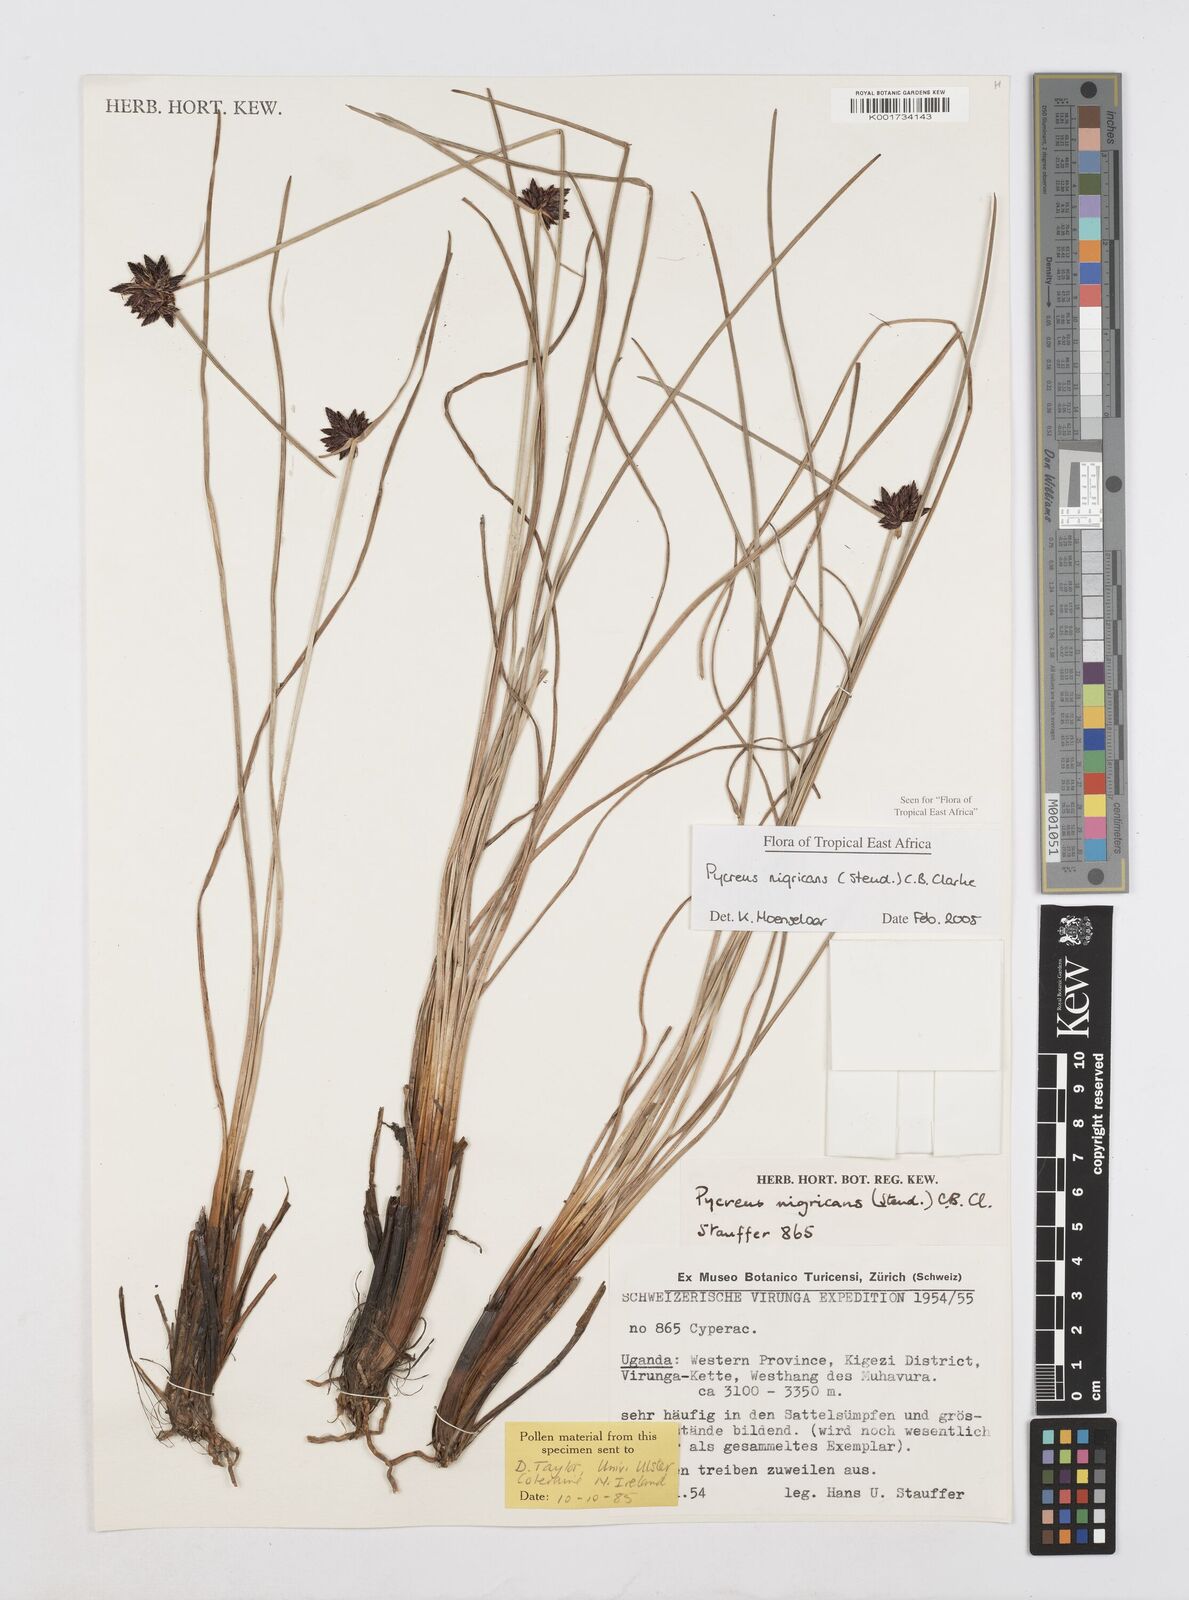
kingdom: Plantae
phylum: Tracheophyta
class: Liliopsida
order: Poales
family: Cyperaceae
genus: Cyperus
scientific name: Cyperus nigricans
